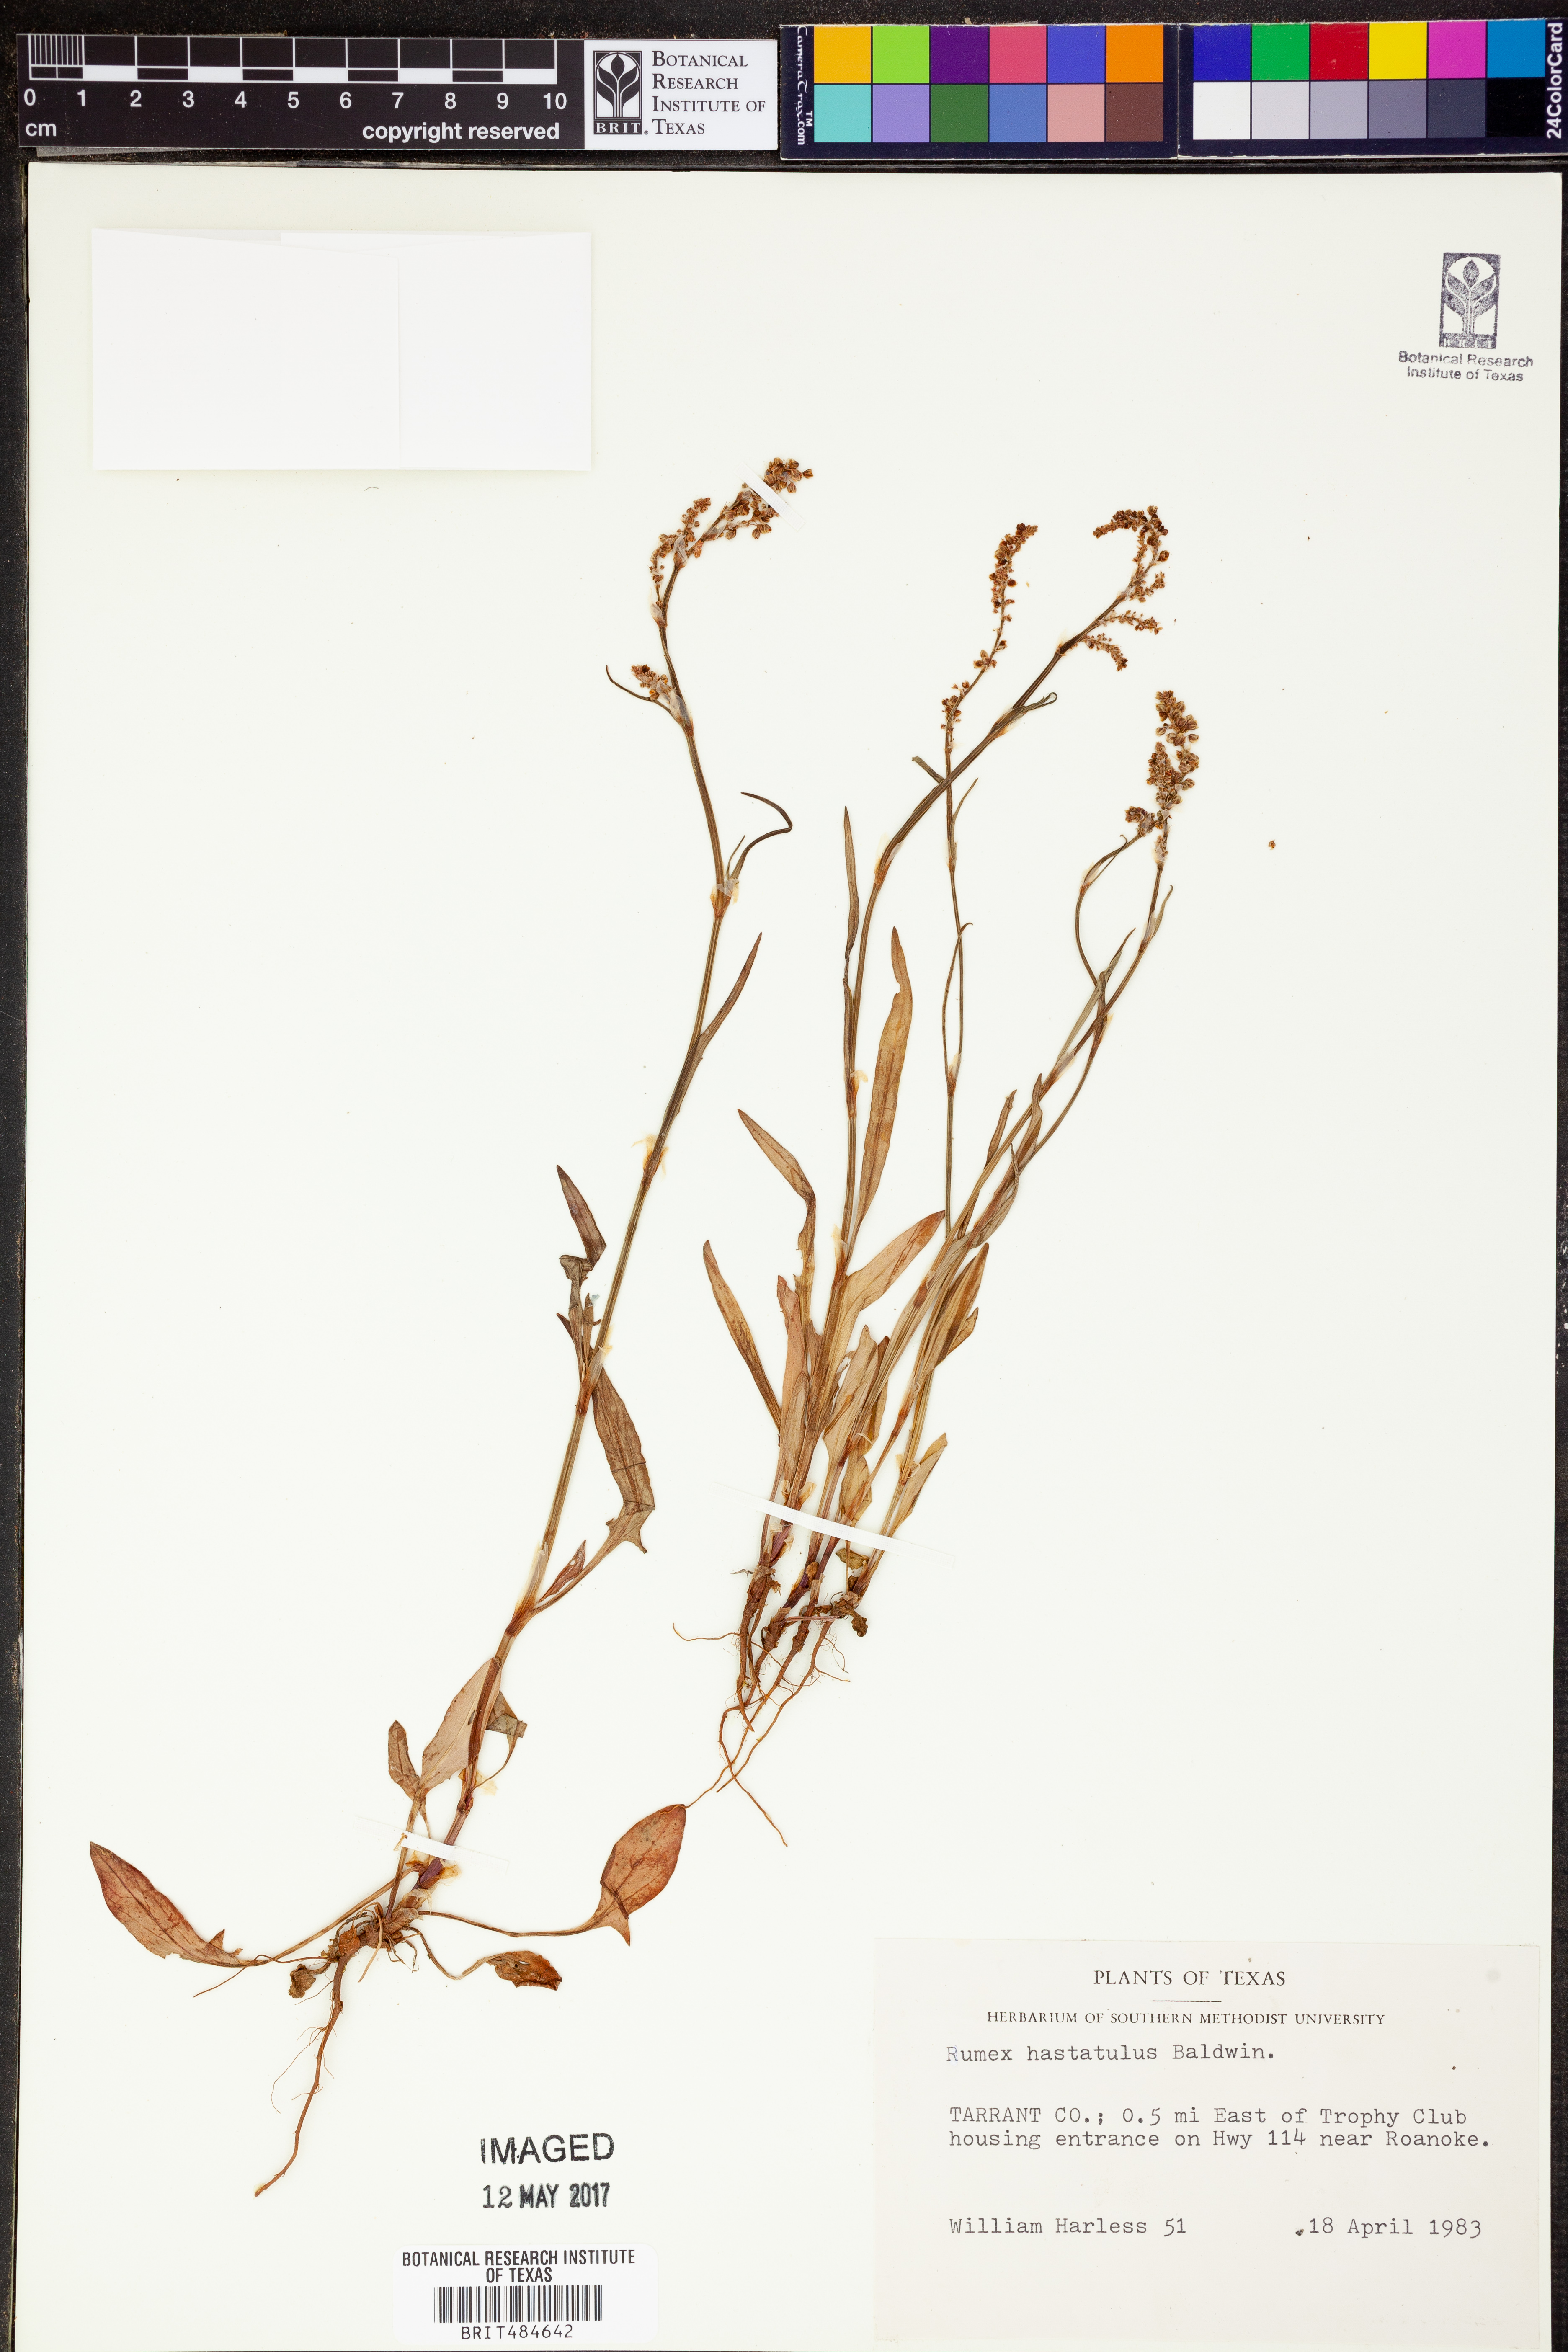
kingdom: Plantae
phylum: Tracheophyta
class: Magnoliopsida
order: Caryophyllales
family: Polygonaceae
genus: Rumex
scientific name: Rumex hastatulus
